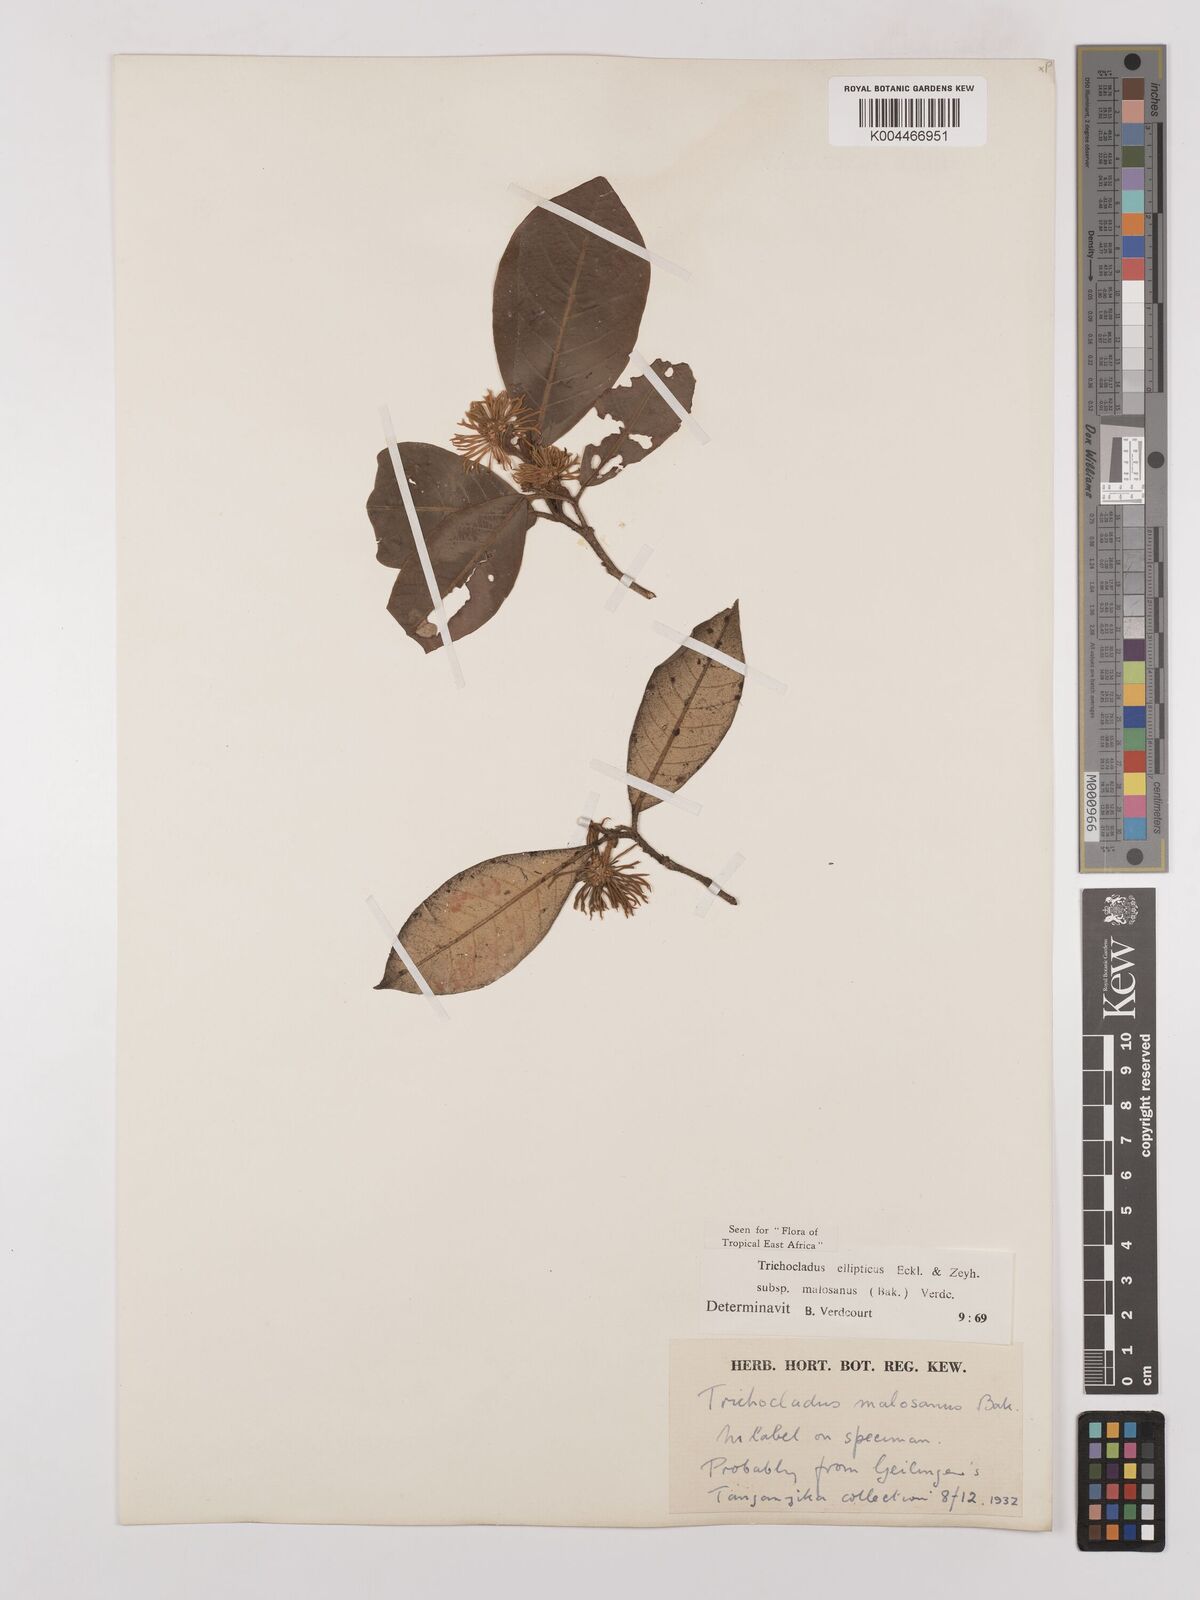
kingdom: Plantae
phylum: Tracheophyta
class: Magnoliopsida
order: Saxifragales
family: Hamamelidaceae
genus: Trichocladus
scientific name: Trichocladus ellipticus
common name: White witch-hazel
